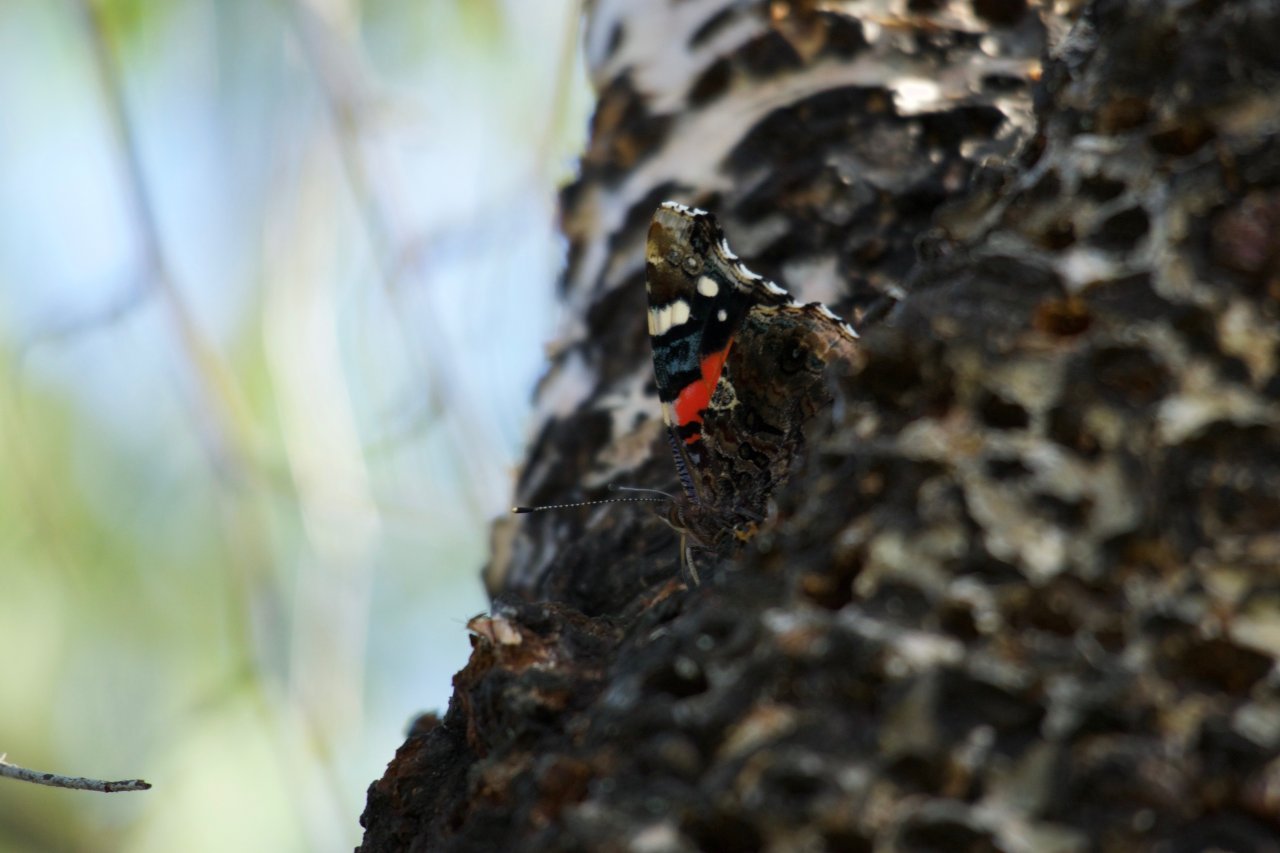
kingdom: Animalia
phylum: Arthropoda
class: Insecta
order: Lepidoptera
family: Nymphalidae
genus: Vanessa
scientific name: Vanessa atalanta
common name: Red Admiral
